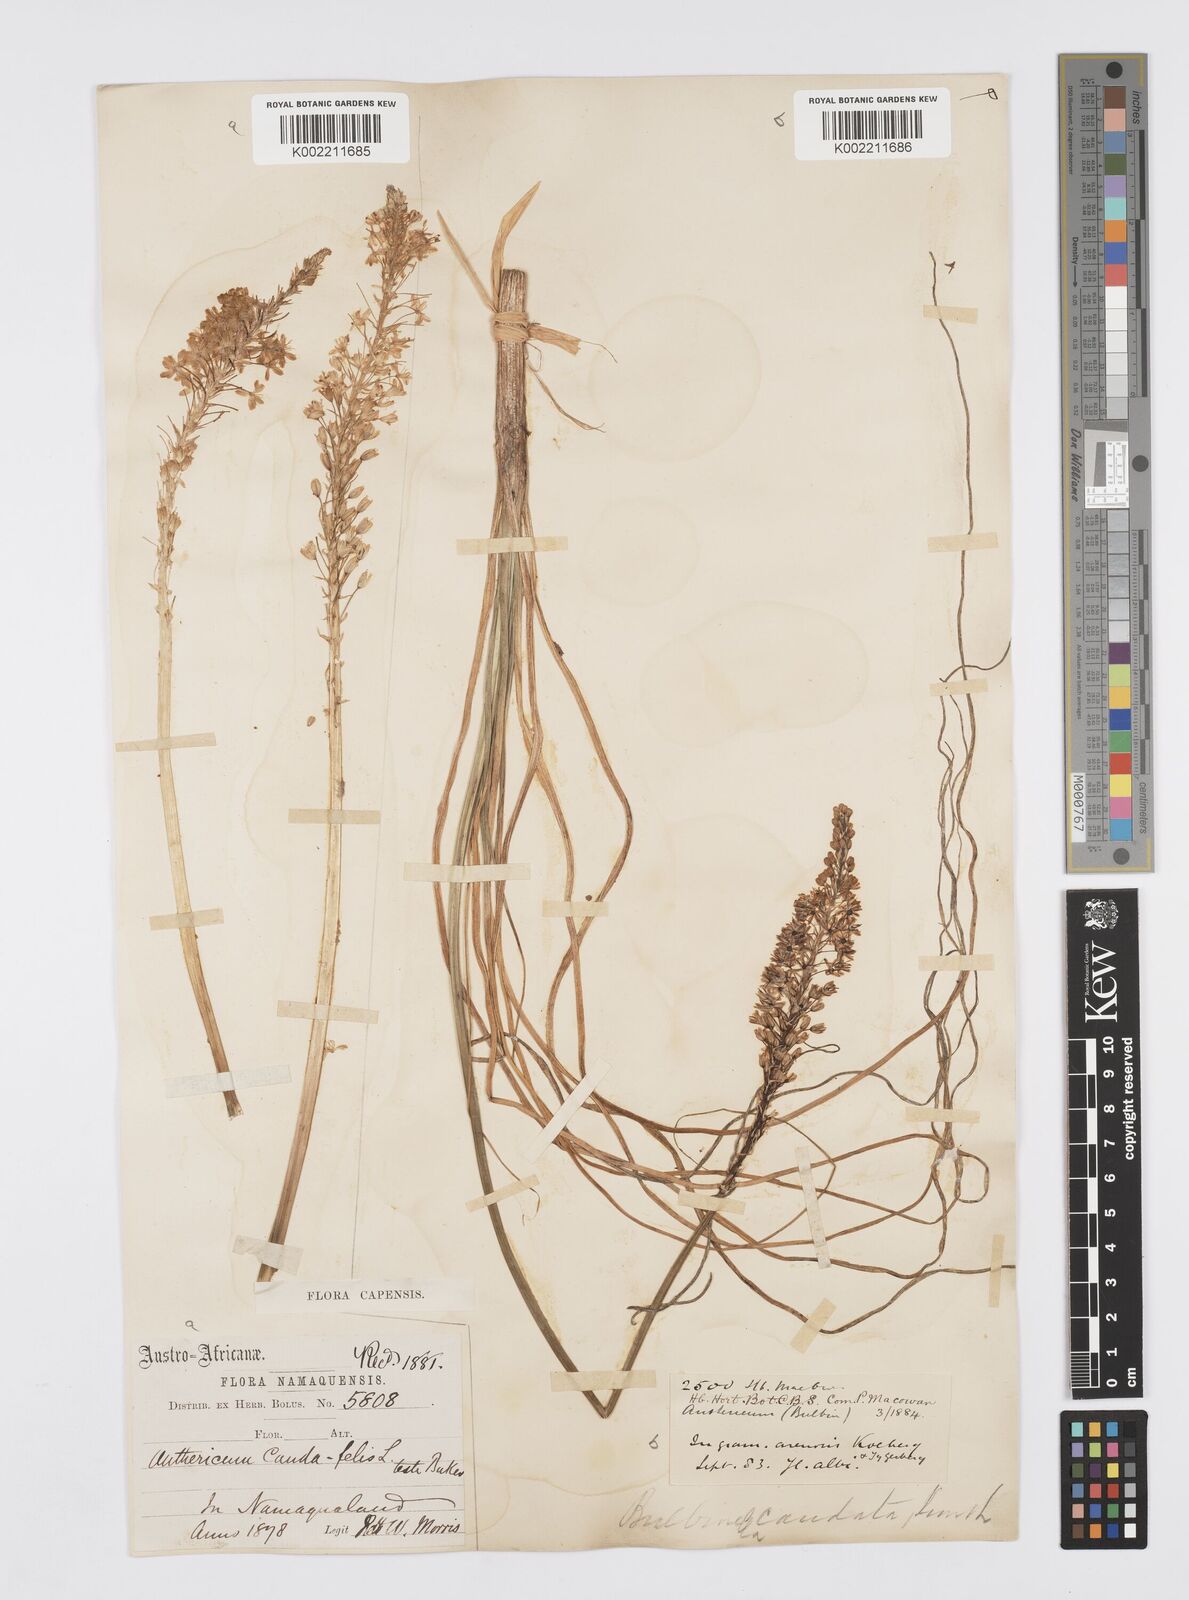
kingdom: Plantae
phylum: Tracheophyta
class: Liliopsida
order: Asparagales
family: Asphodelaceae
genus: Bulbinella
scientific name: Bulbinella cauda-felis
